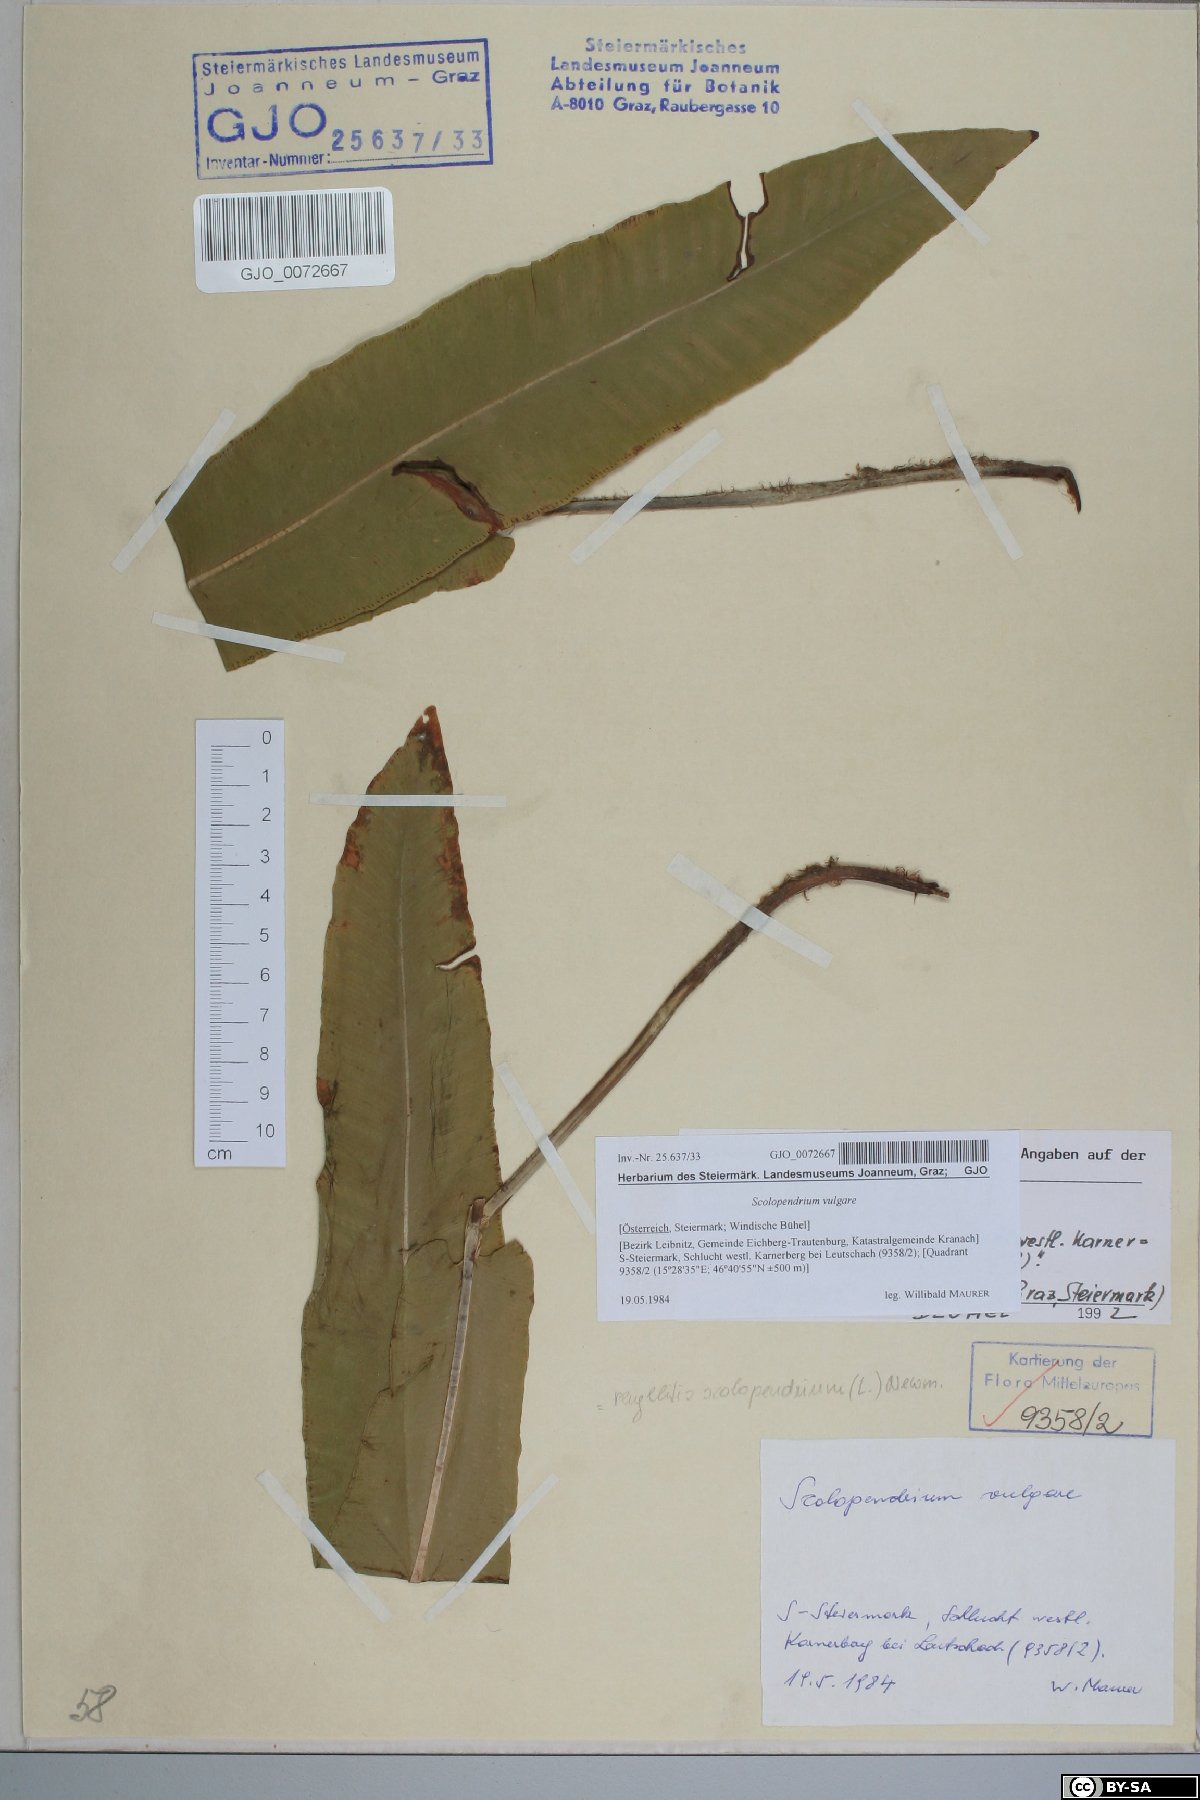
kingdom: Plantae
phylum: Tracheophyta
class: Polypodiopsida
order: Polypodiales
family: Aspleniaceae
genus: Asplenium
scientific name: Asplenium scolopendrium
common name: Hart's-tongue fern
